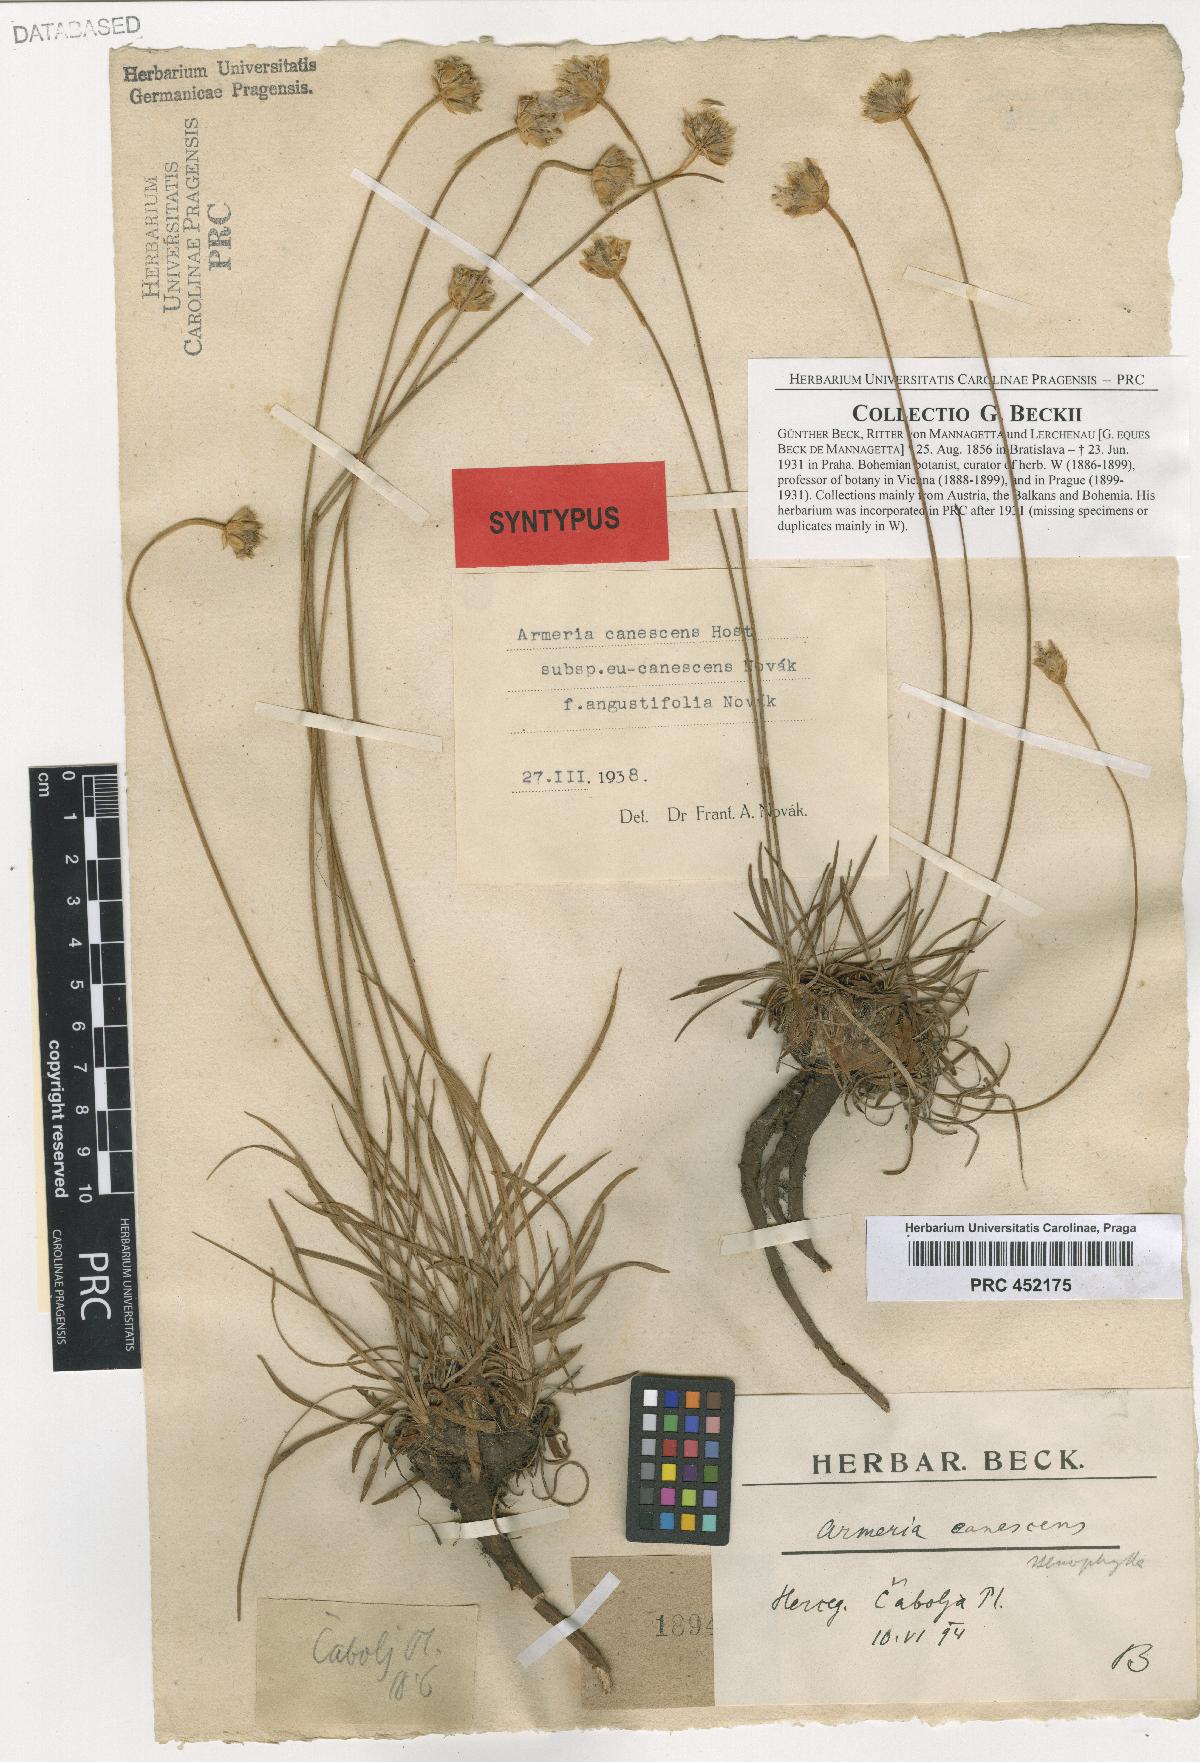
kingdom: Plantae
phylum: Tracheophyta
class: Magnoliopsida
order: Caryophyllales
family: Plumbaginaceae
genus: Armeria
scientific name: Armeria canescens
